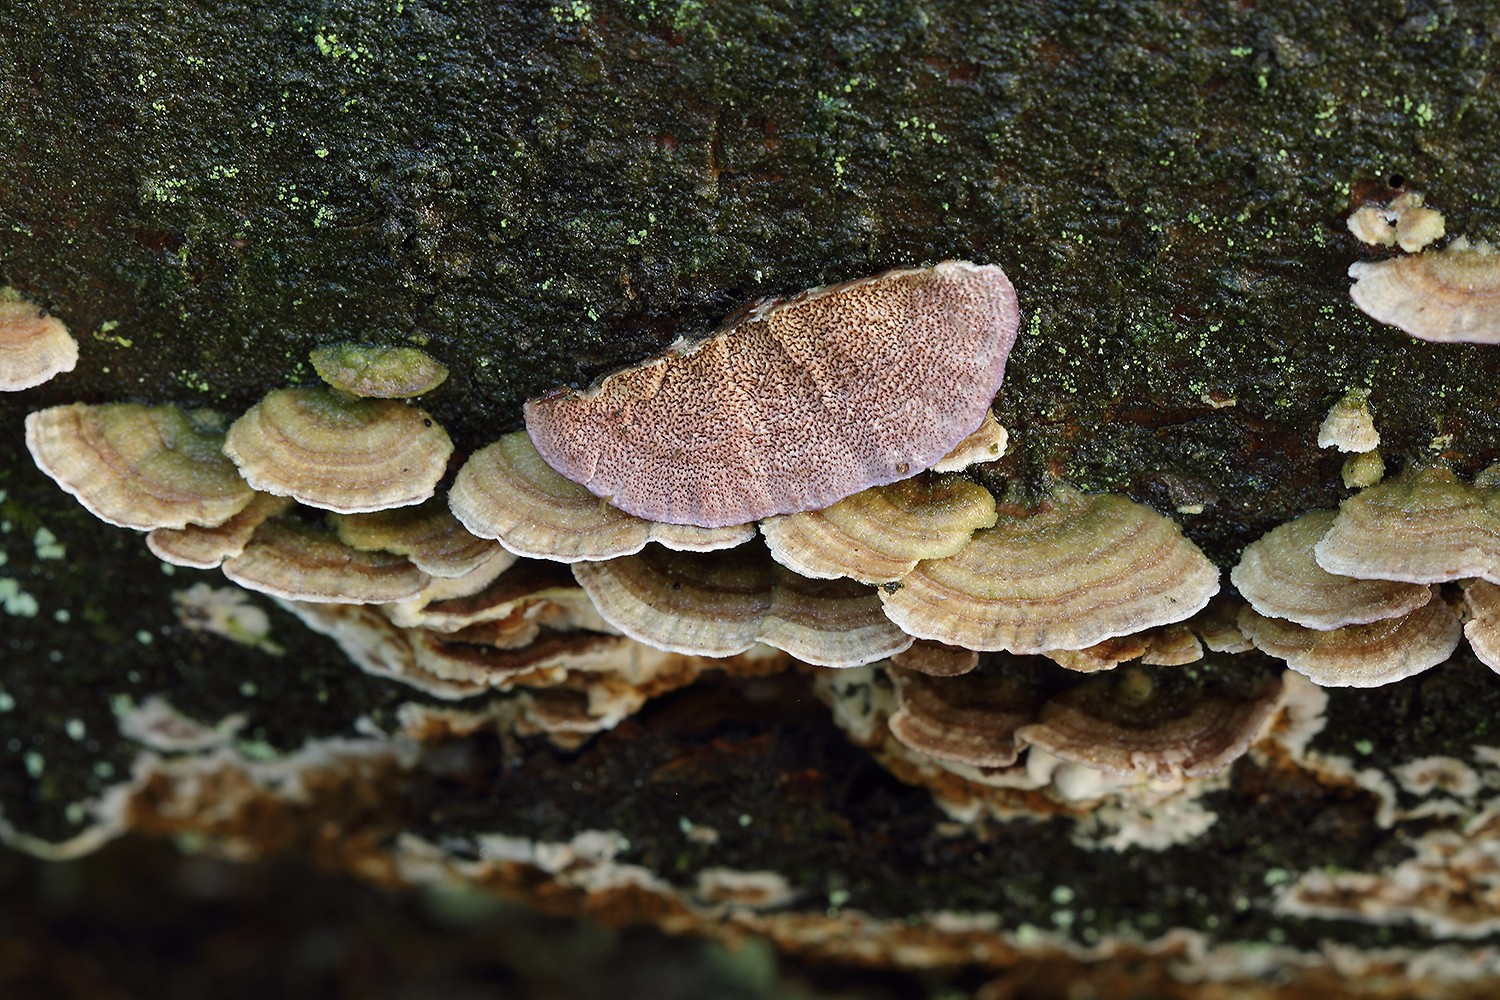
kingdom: Fungi
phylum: Basidiomycota
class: Agaricomycetes
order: Hymenochaetales
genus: Trichaptum
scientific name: Trichaptum abietinum
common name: almindelig violporesvamp
